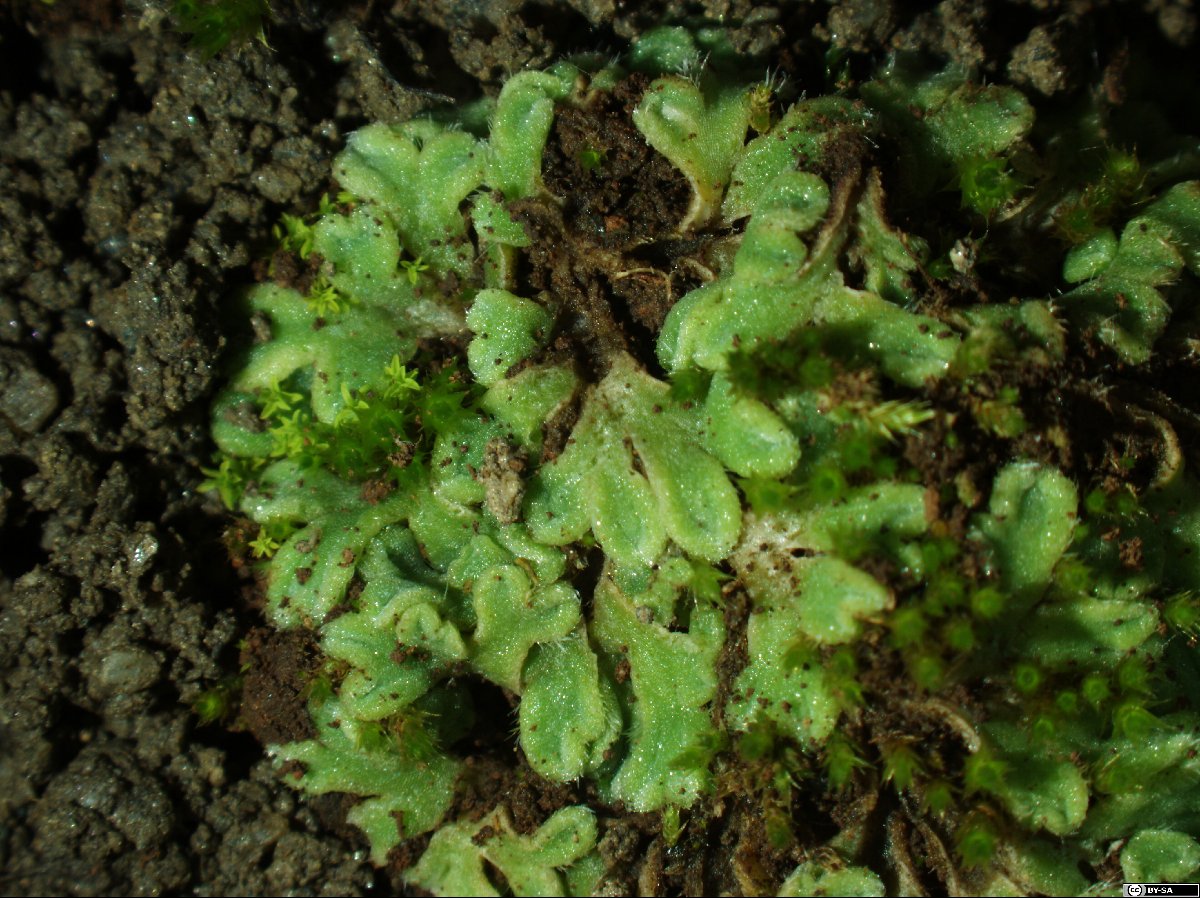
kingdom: Plantae
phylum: Marchantiophyta
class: Marchantiopsida
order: Marchantiales
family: Ricciaceae
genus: Riccia
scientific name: Riccia michelii
